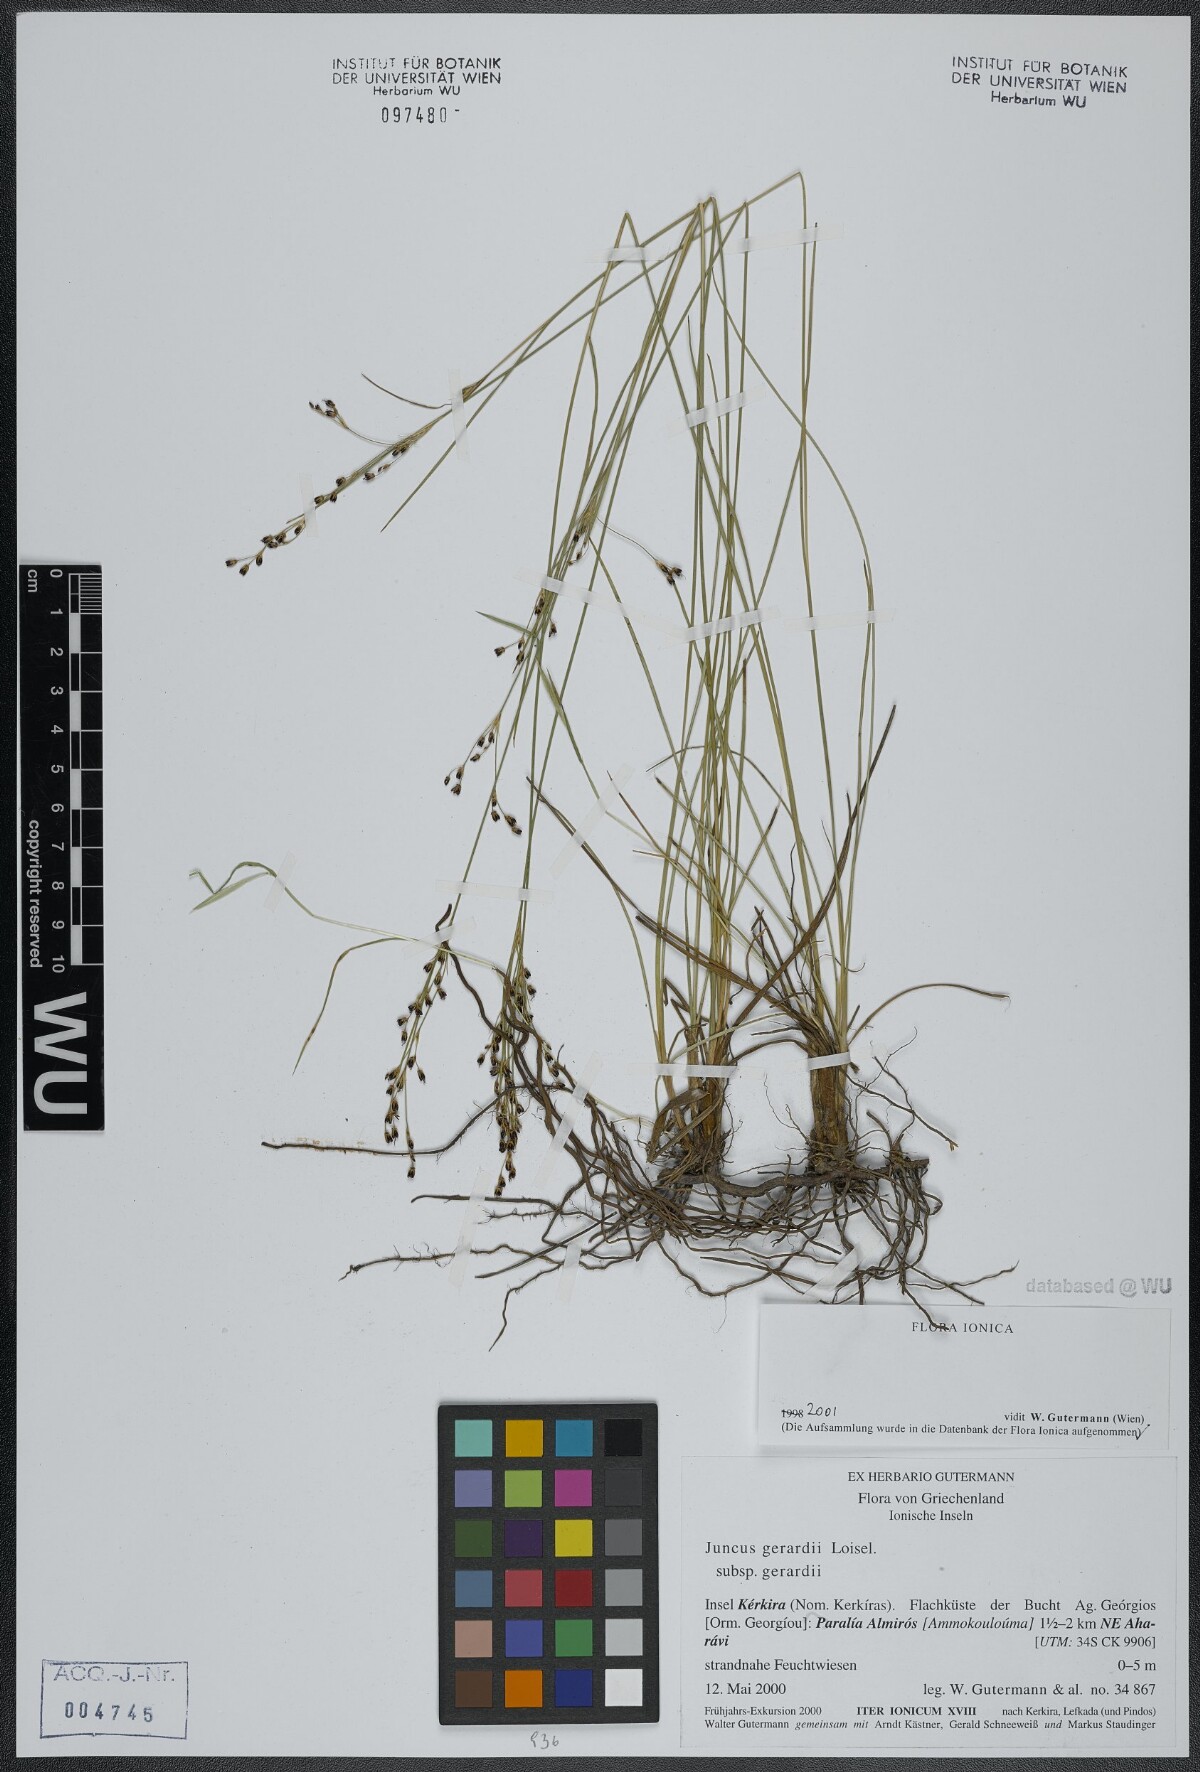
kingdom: Plantae
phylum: Tracheophyta
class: Liliopsida
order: Poales
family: Juncaceae
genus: Juncus
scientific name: Juncus gerardi
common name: Saltmarsh rush
